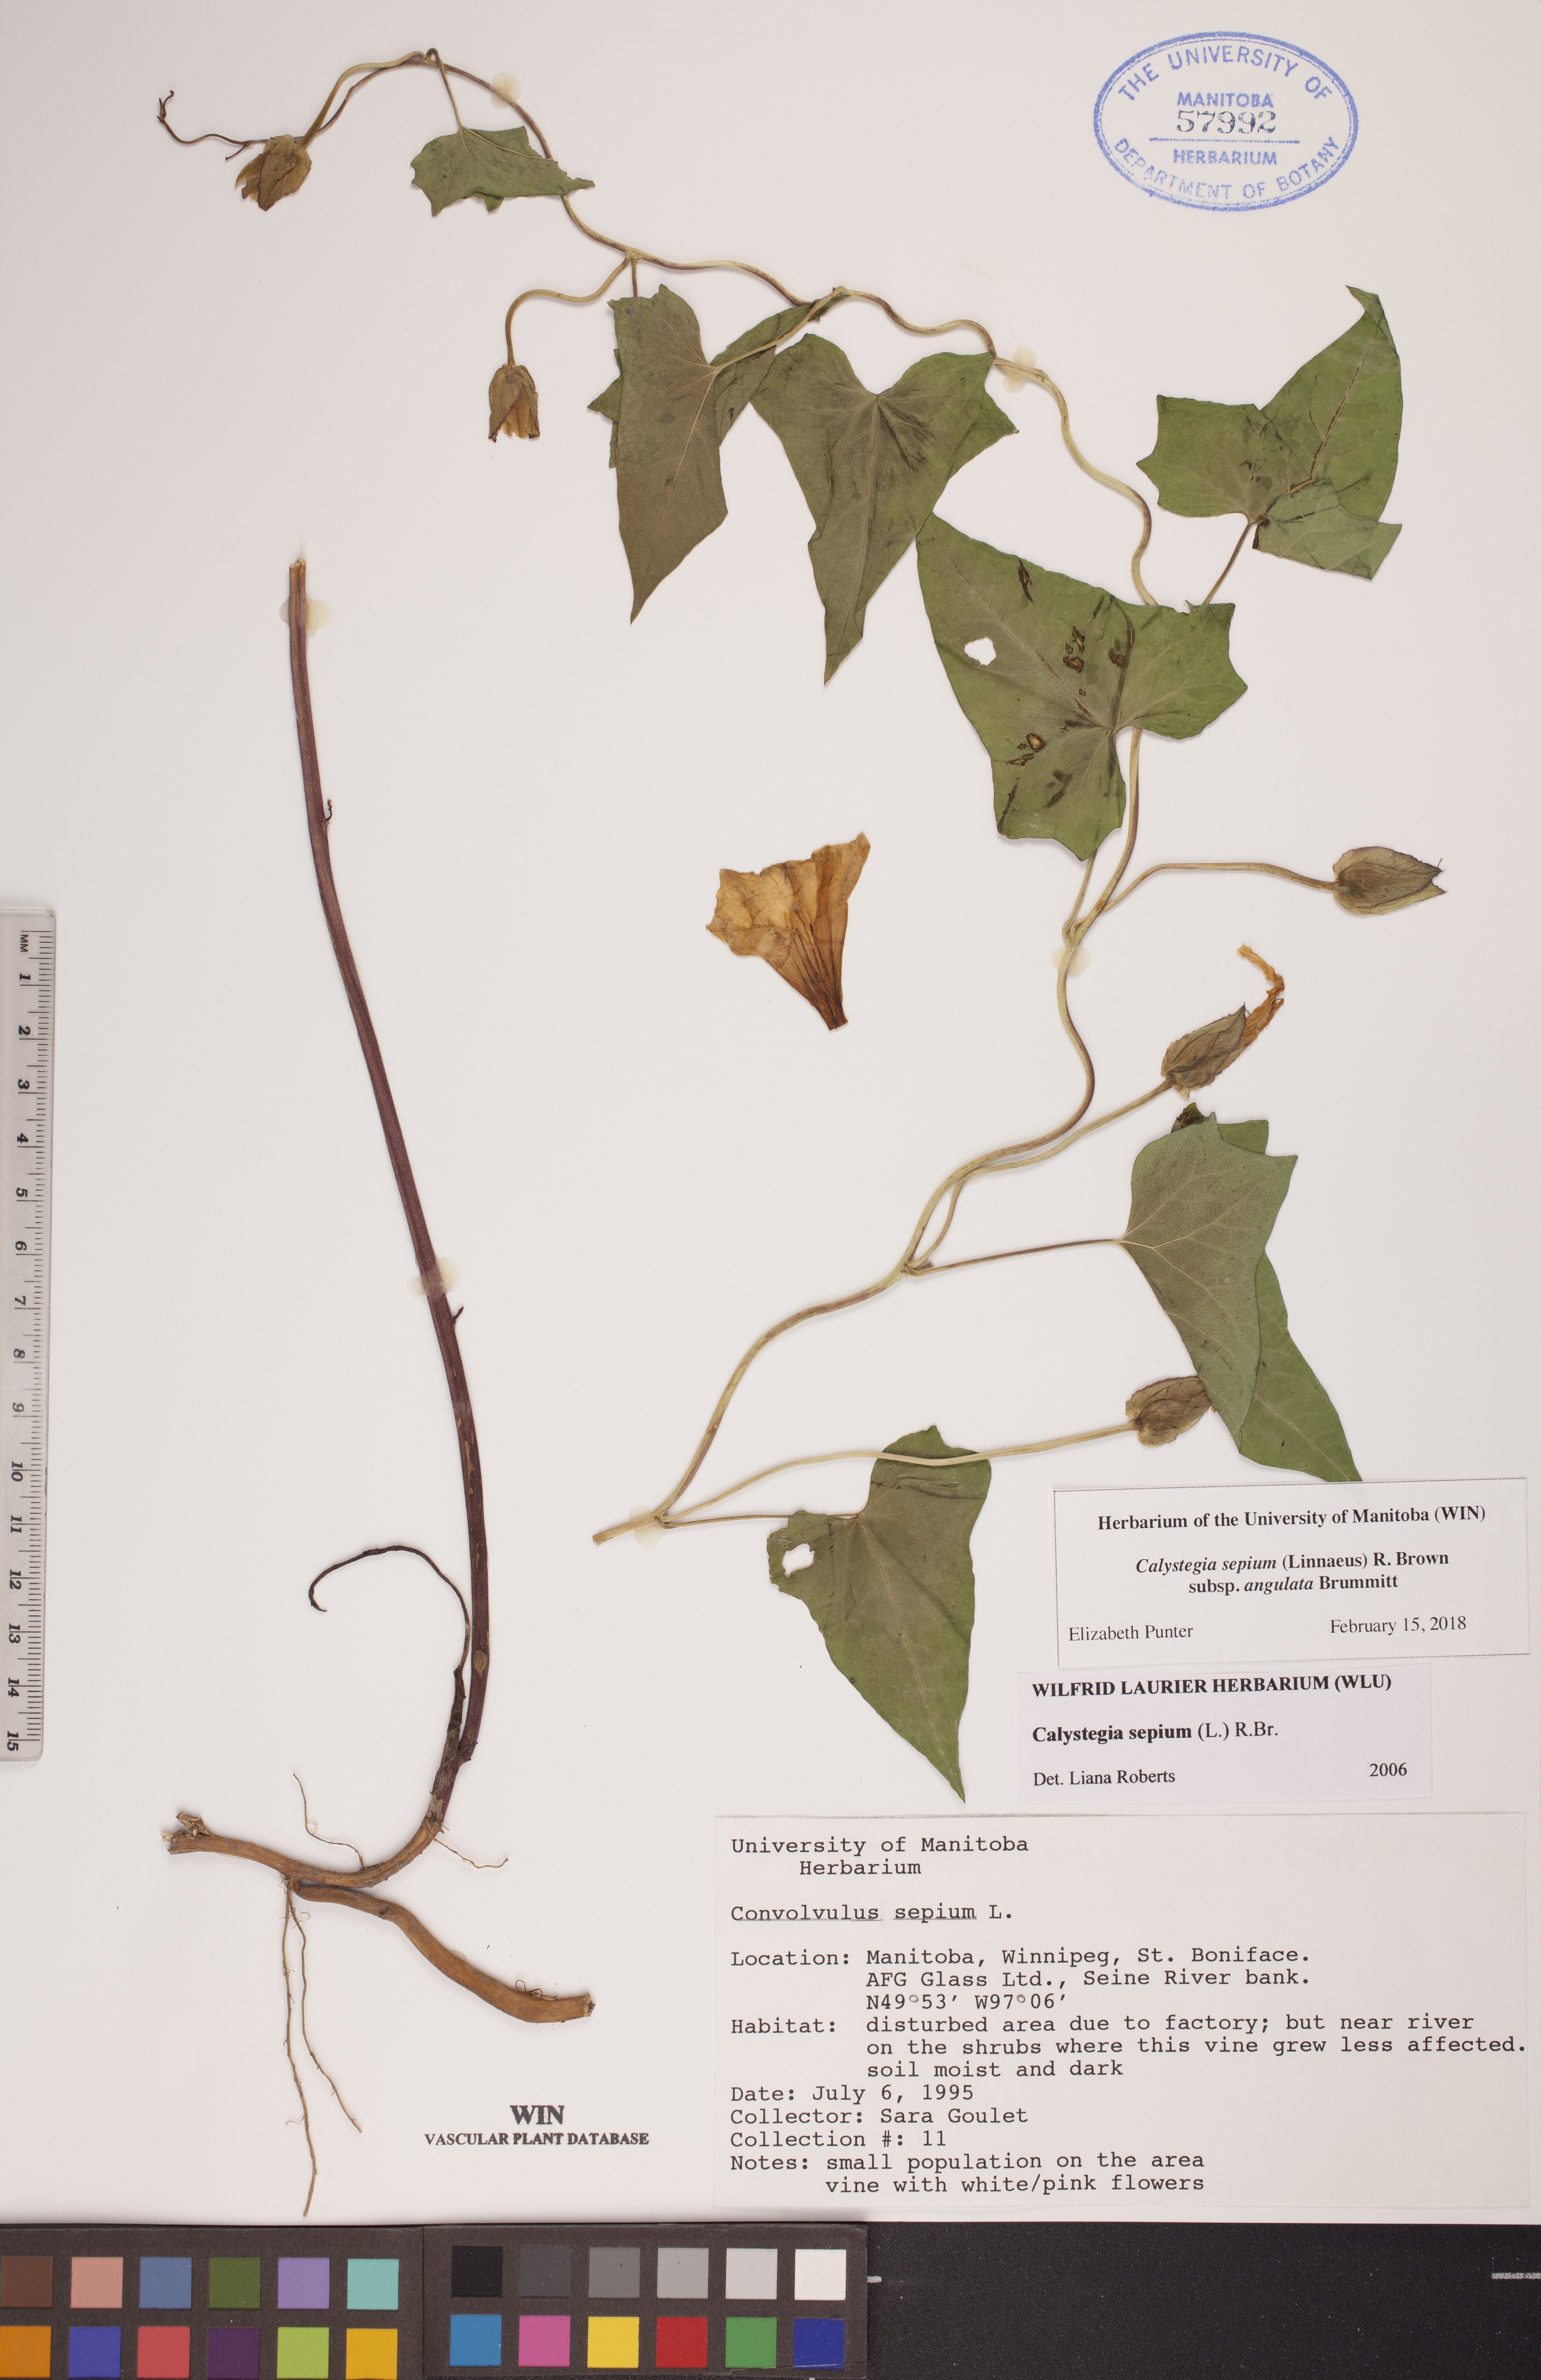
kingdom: Plantae
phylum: Tracheophyta
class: Magnoliopsida
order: Solanales
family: Convolvulaceae
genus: Calystegia
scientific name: Calystegia sepium
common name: Hedge bindweed
